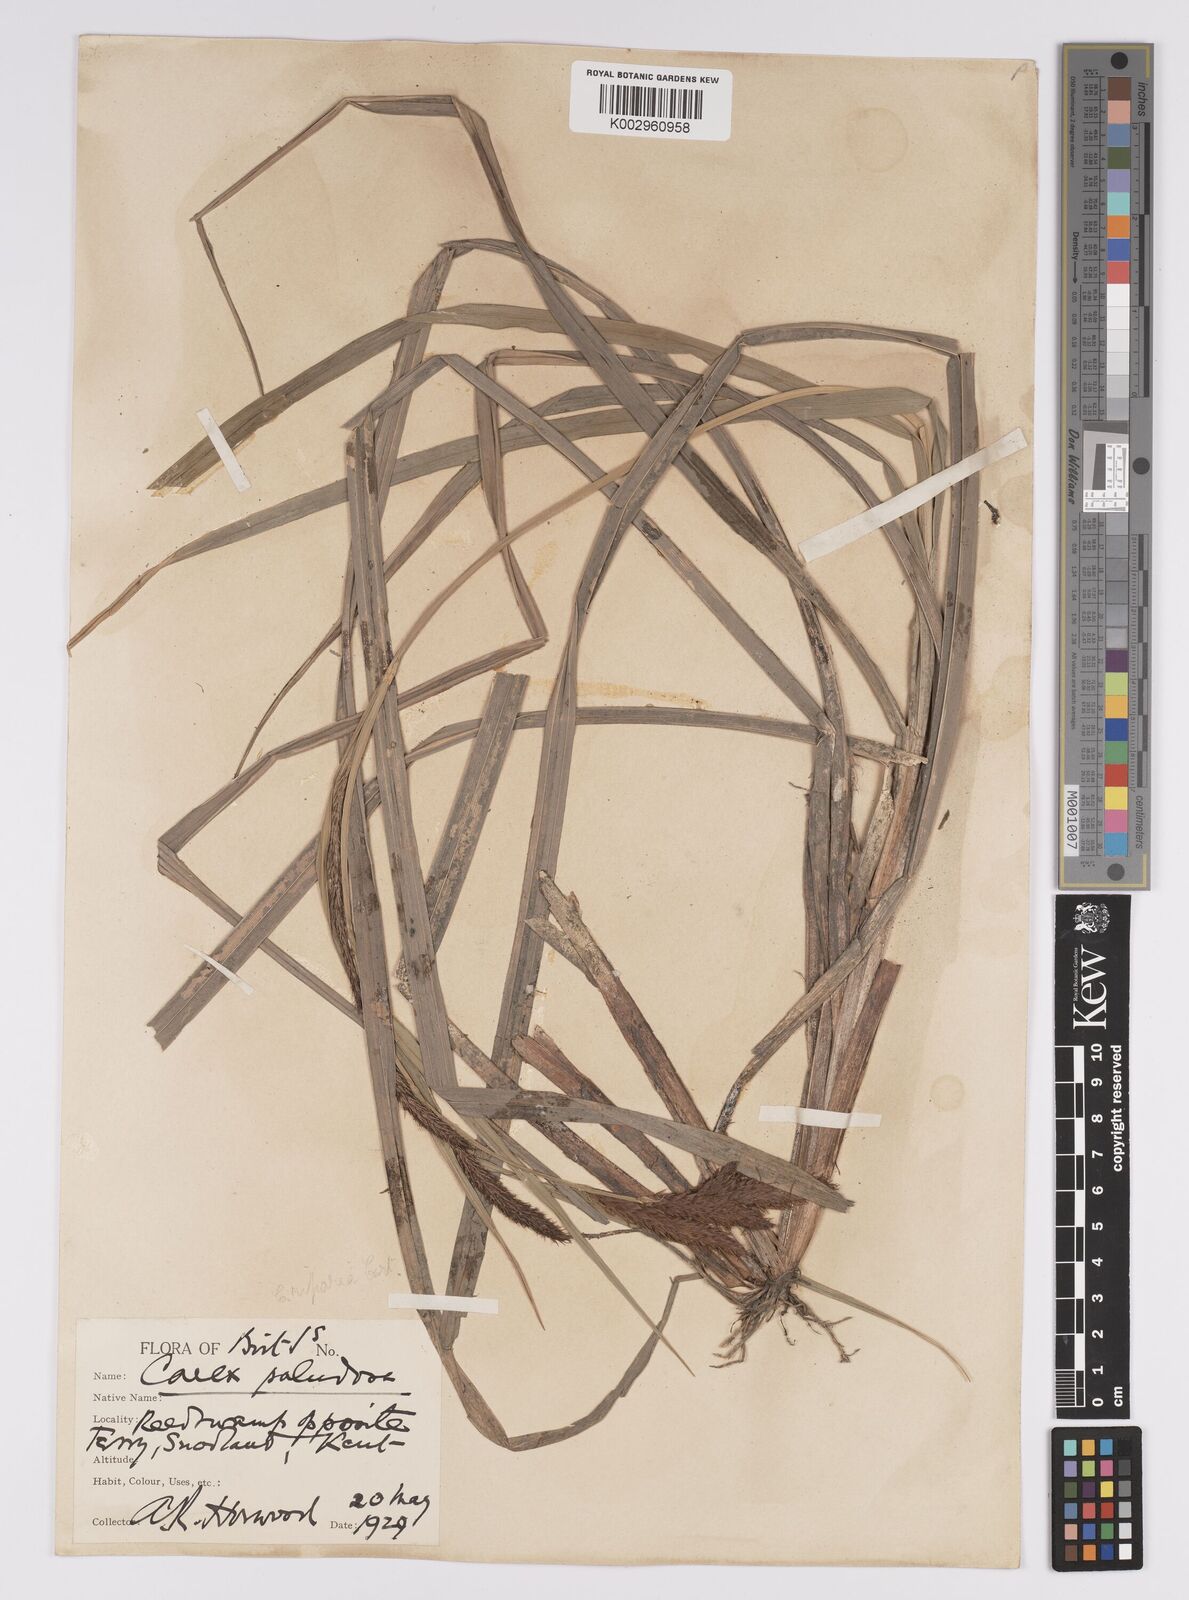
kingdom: Plantae
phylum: Tracheophyta
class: Liliopsida
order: Poales
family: Cyperaceae
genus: Carex
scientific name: Carex riparia
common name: Greater pond-sedge
